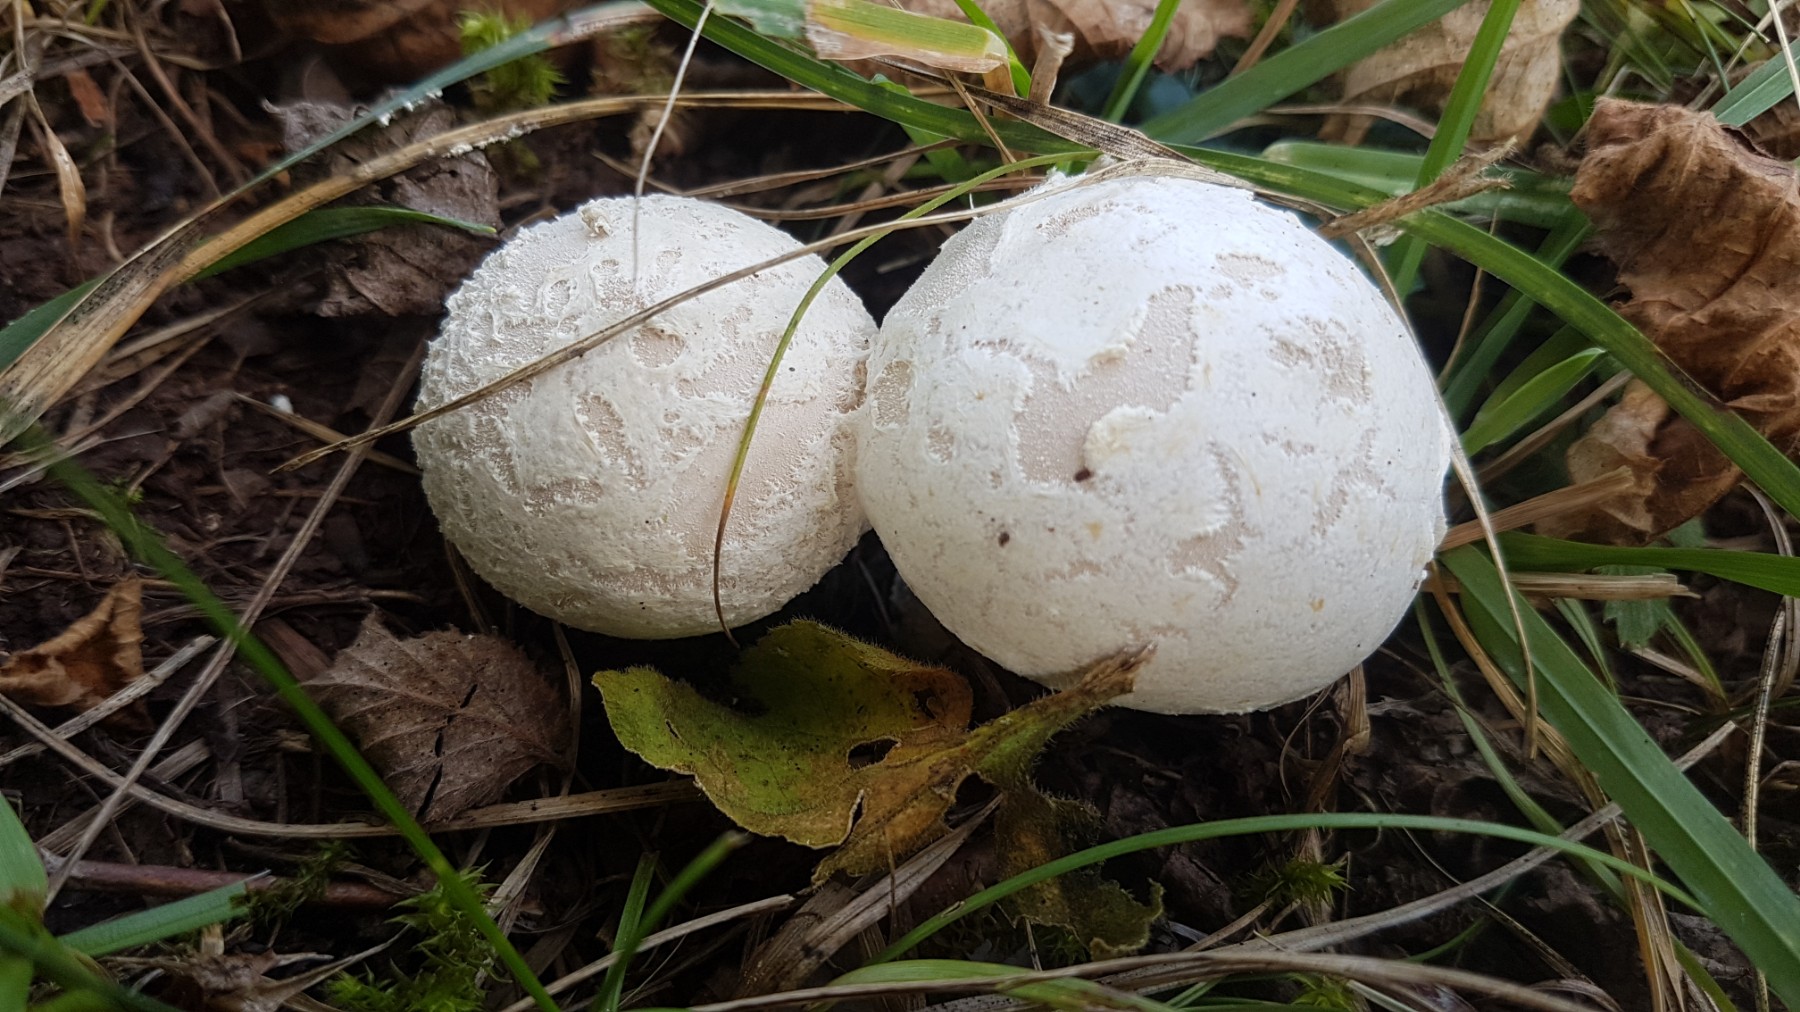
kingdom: Fungi
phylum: Basidiomycota
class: Agaricomycetes
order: Agaricales
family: Lycoperdaceae
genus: Lycoperdon
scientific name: Lycoperdon mammiforme
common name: rosa støvbold
